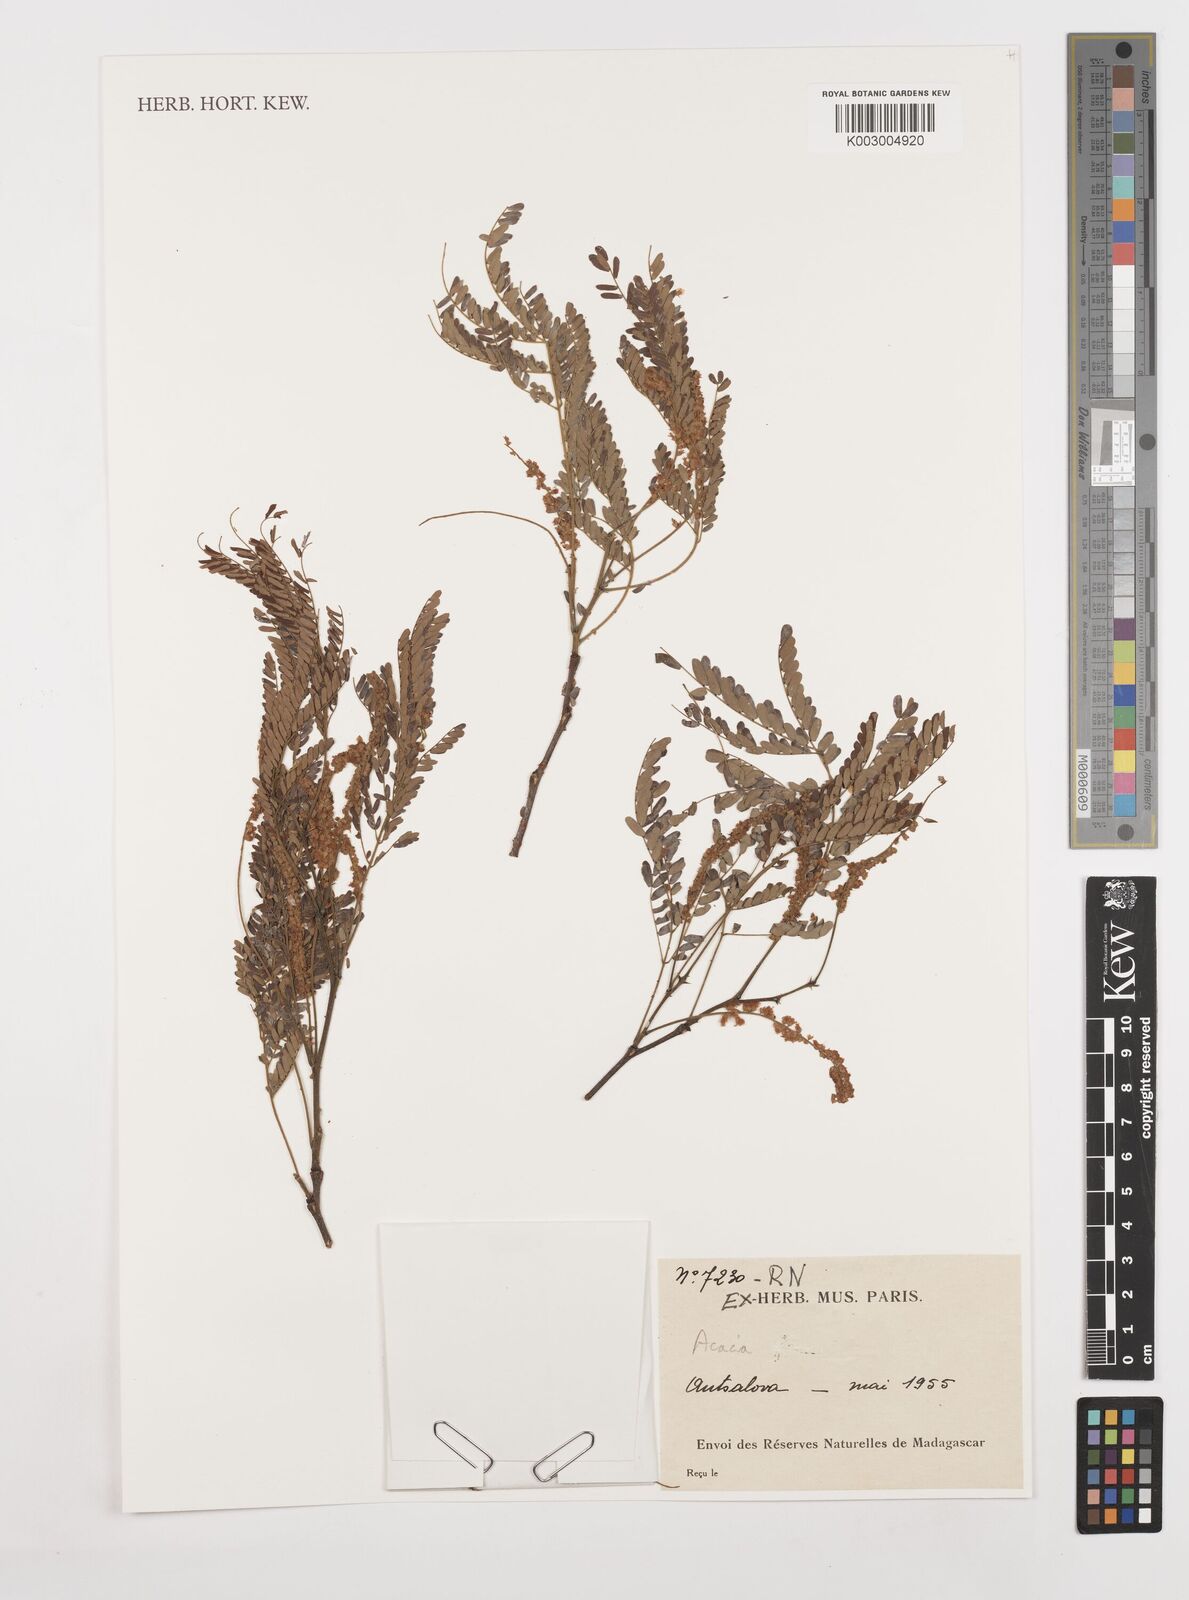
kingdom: Plantae
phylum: Tracheophyta
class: Magnoliopsida
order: Fabales
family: Fabaceae
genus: Acacia
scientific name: Acacia
